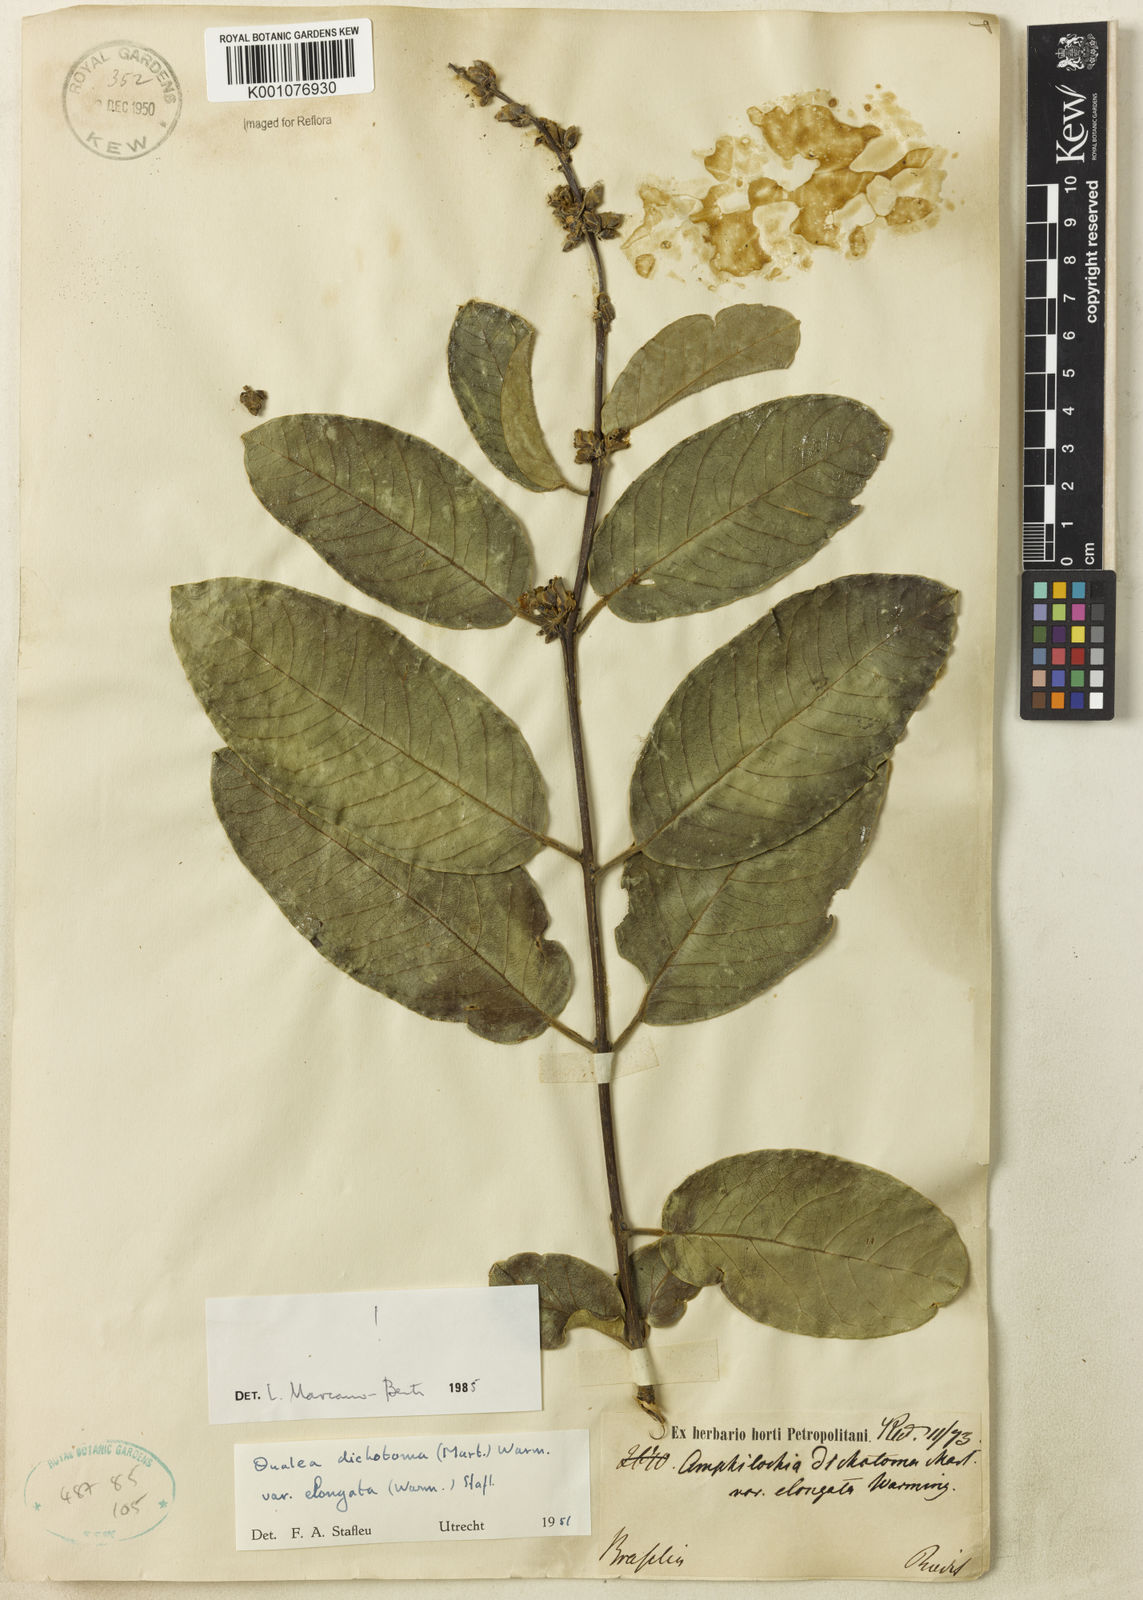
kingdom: Plantae
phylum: Tracheophyta
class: Magnoliopsida
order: Myrtales
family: Vochysiaceae
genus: Qualea
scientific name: Qualea cordata
